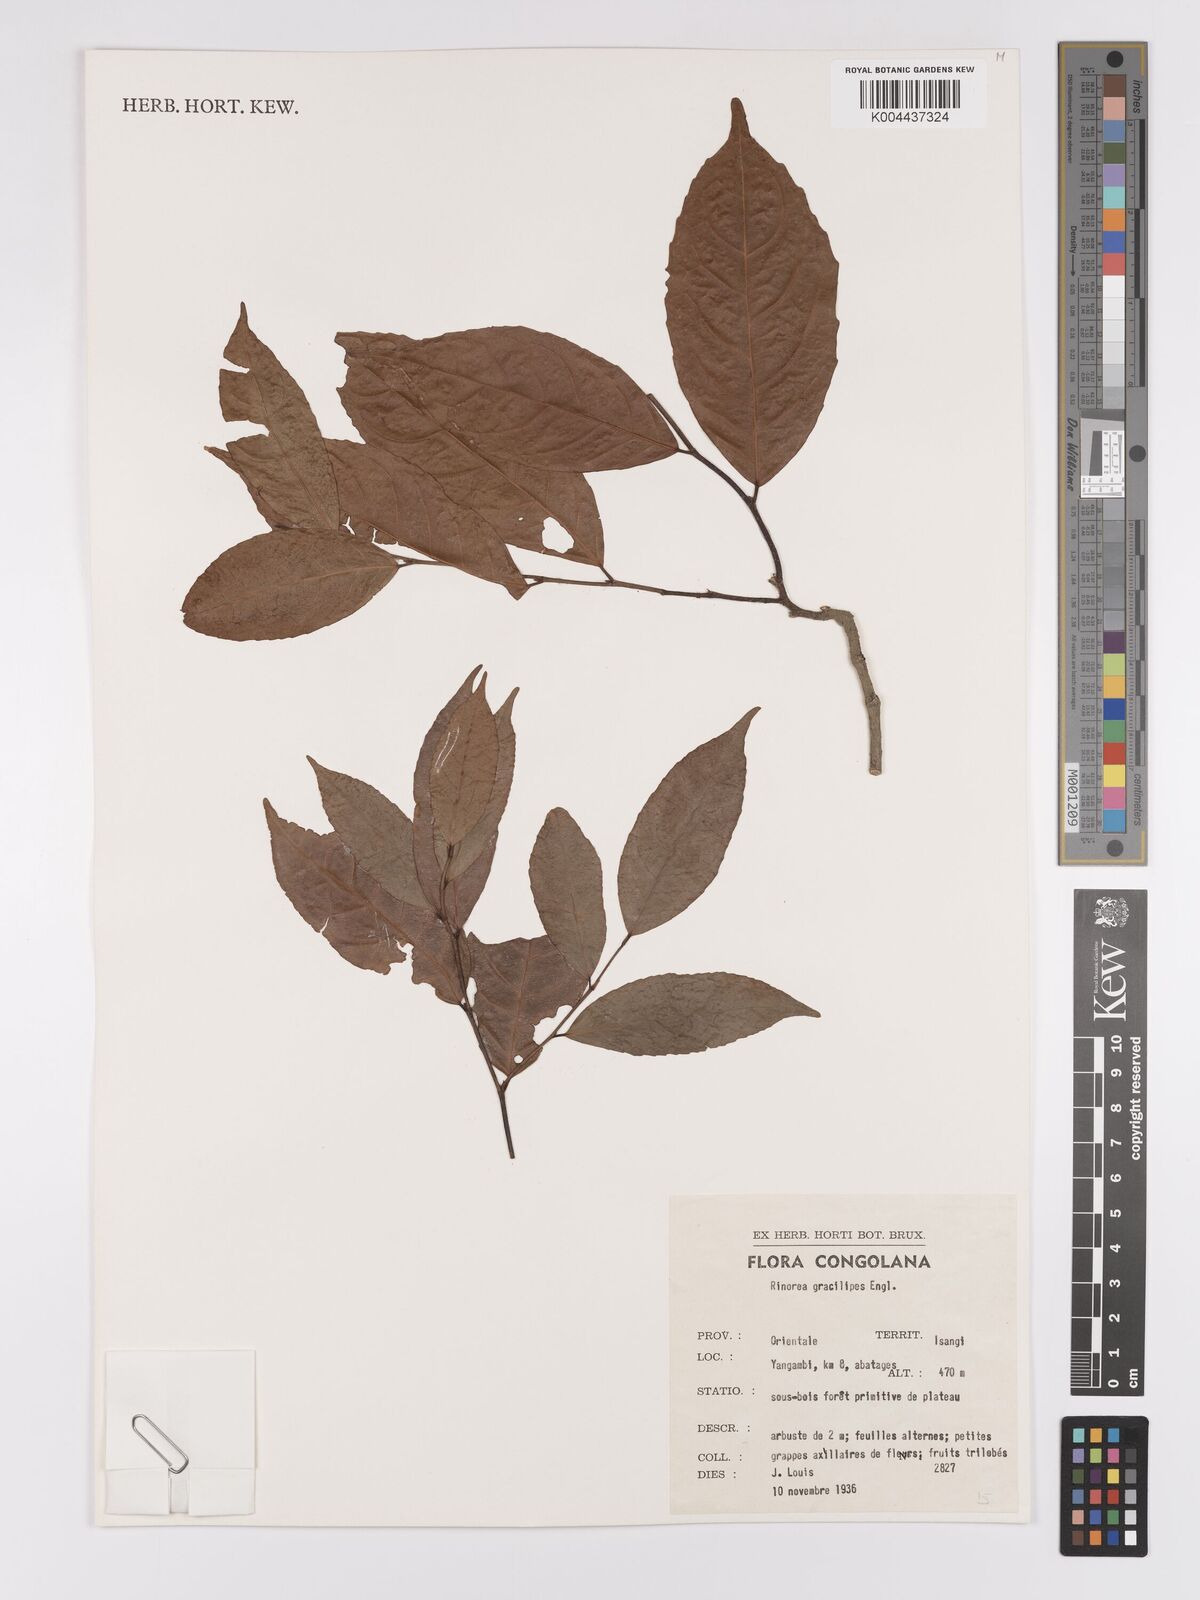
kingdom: Plantae
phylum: Tracheophyta
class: Magnoliopsida
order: Malpighiales
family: Violaceae
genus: Rinorea
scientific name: Rinorea angustifolia
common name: White violet-bush
